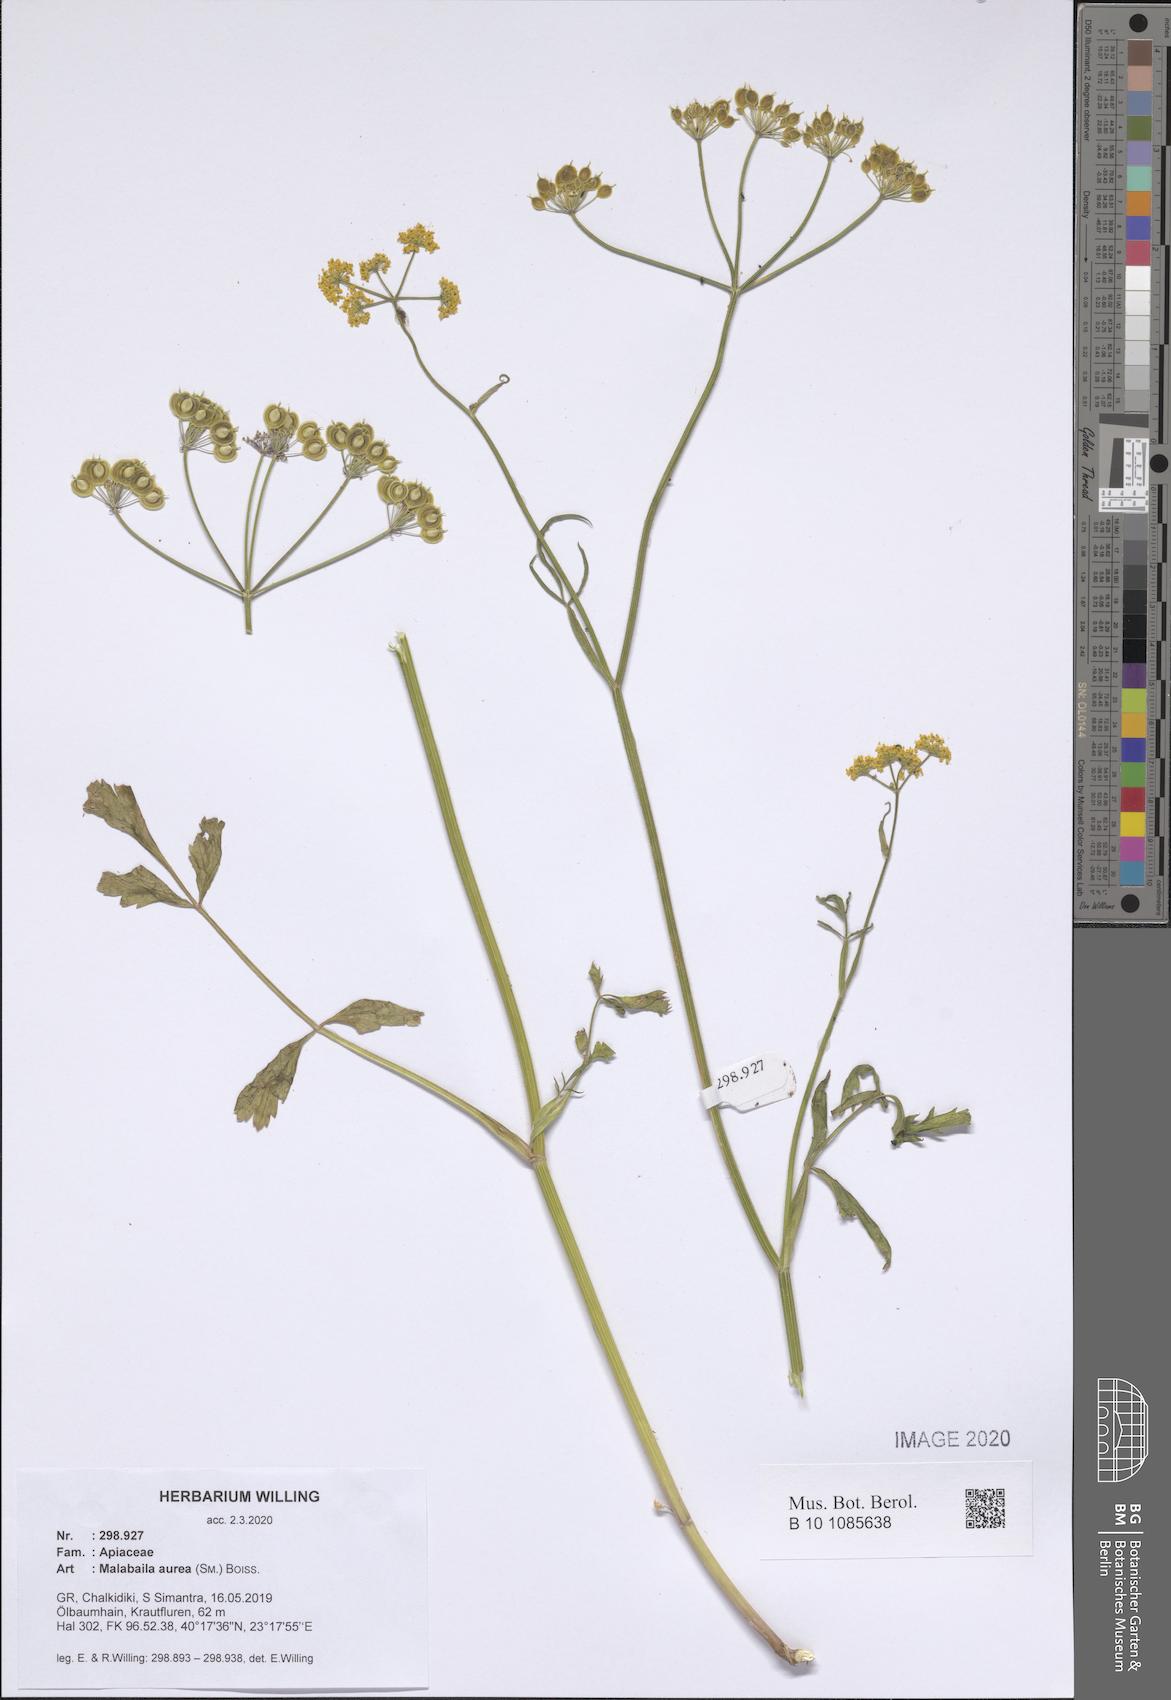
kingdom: Plantae
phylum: Tracheophyta
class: Magnoliopsida
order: Apiales
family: Apiaceae
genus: Leiotulus
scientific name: Leiotulus aureus
